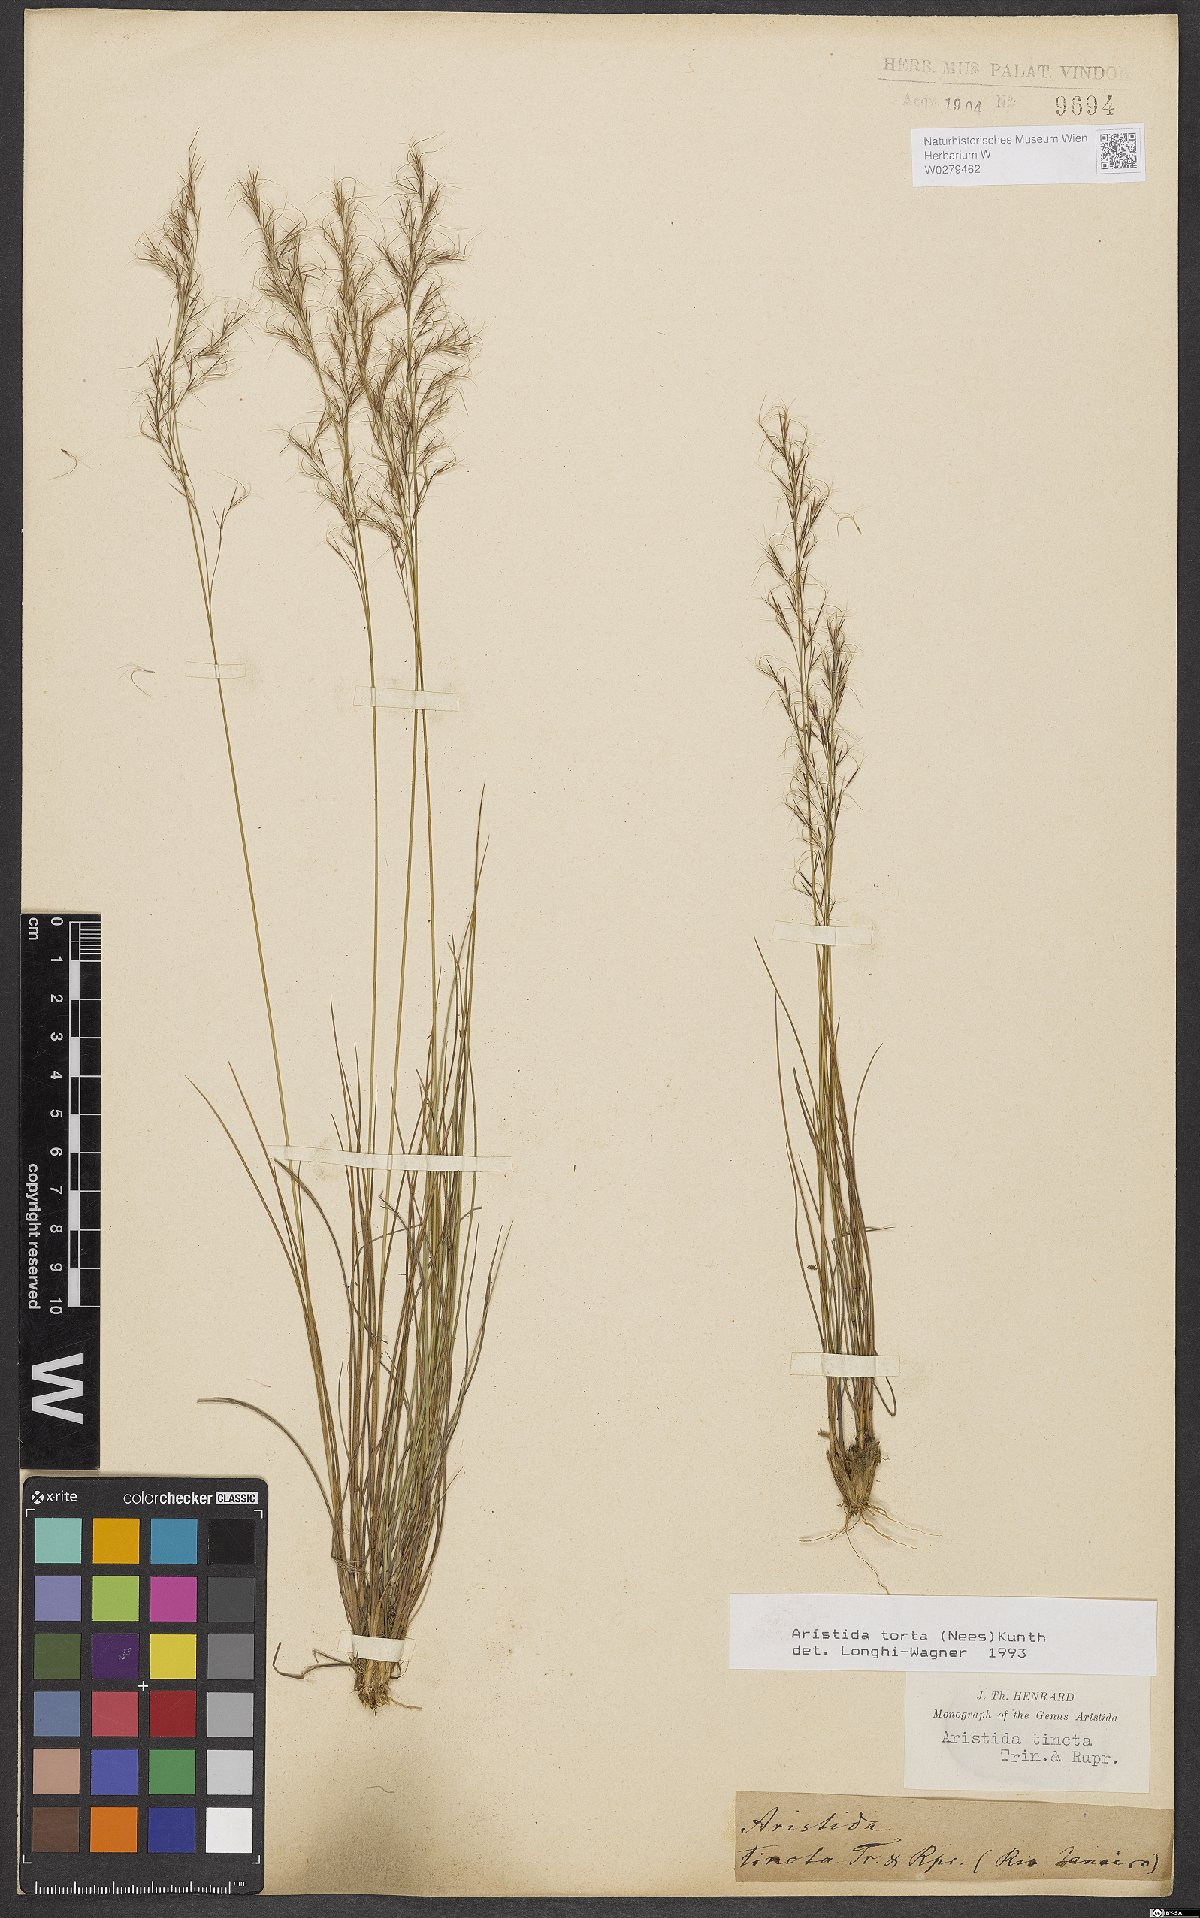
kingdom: Plantae
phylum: Tracheophyta
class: Liliopsida
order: Poales
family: Poaceae
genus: Aristida
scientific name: Aristida torta
